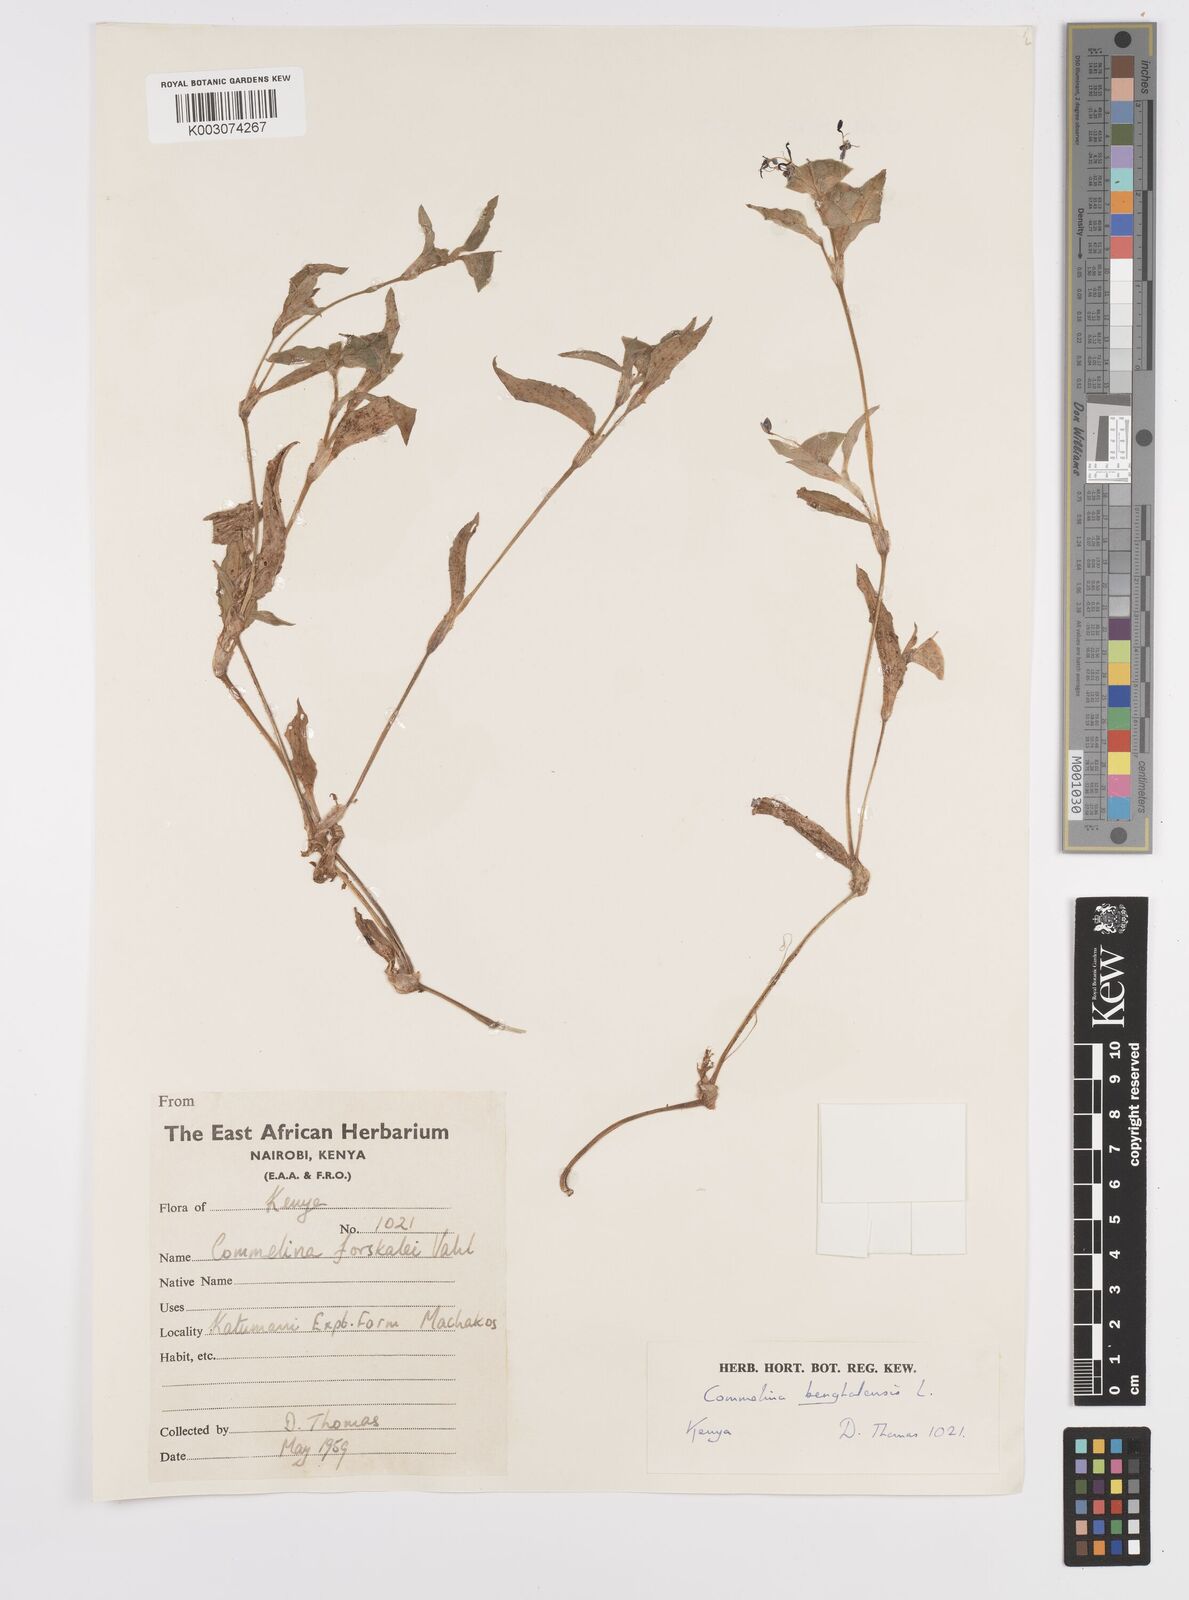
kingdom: Plantae
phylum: Tracheophyta
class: Liliopsida
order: Commelinales
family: Commelinaceae
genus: Commelina
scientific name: Commelina benghalensis
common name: Jio
